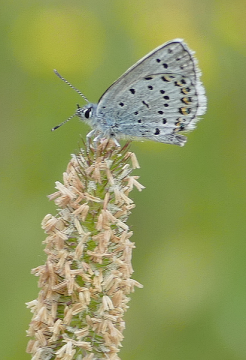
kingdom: Animalia
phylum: Arthropoda
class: Insecta
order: Lepidoptera
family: Lycaenidae
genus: Lycaeides
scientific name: Lycaeides idas
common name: Northern Blue
